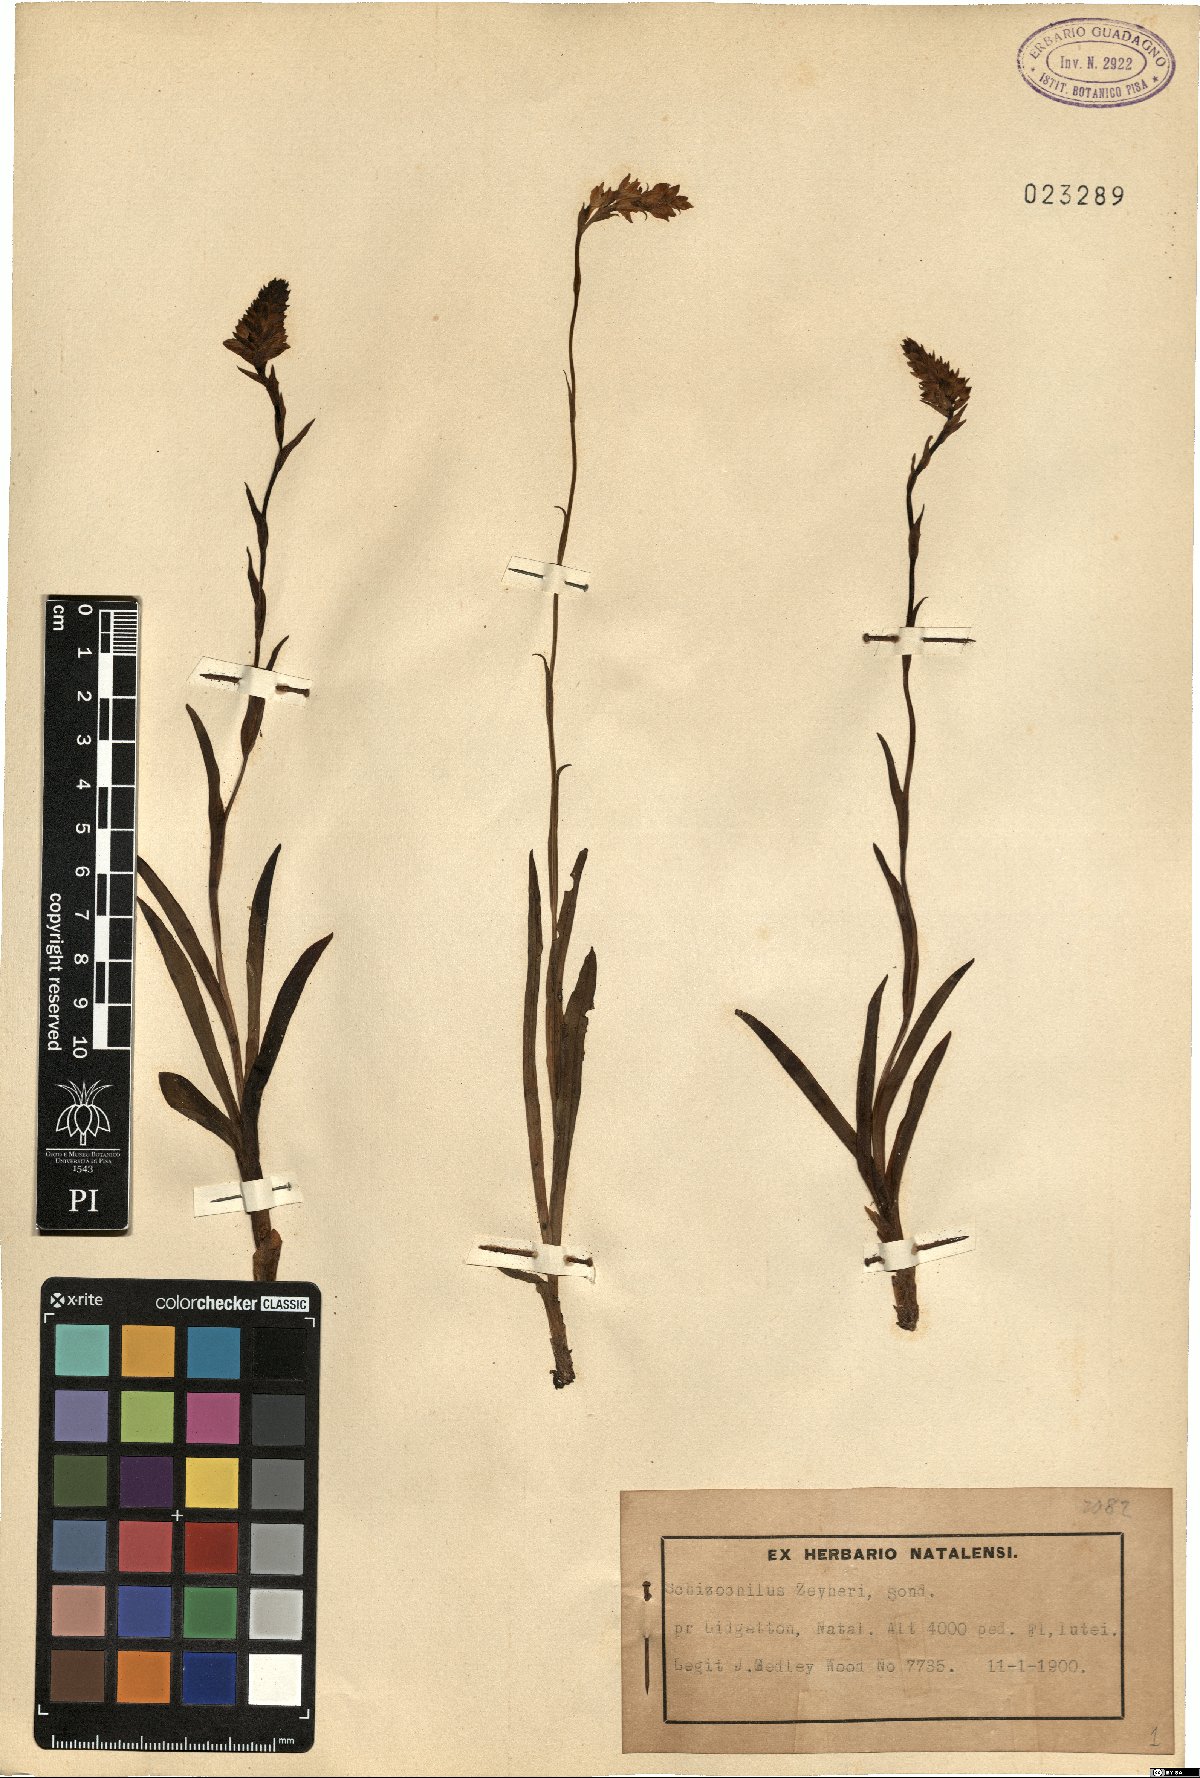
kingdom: Plantae
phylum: Tracheophyta
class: Liliopsida
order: Asparagales
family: Orchidaceae
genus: Schizochilus
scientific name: Schizochilus zeyheri
